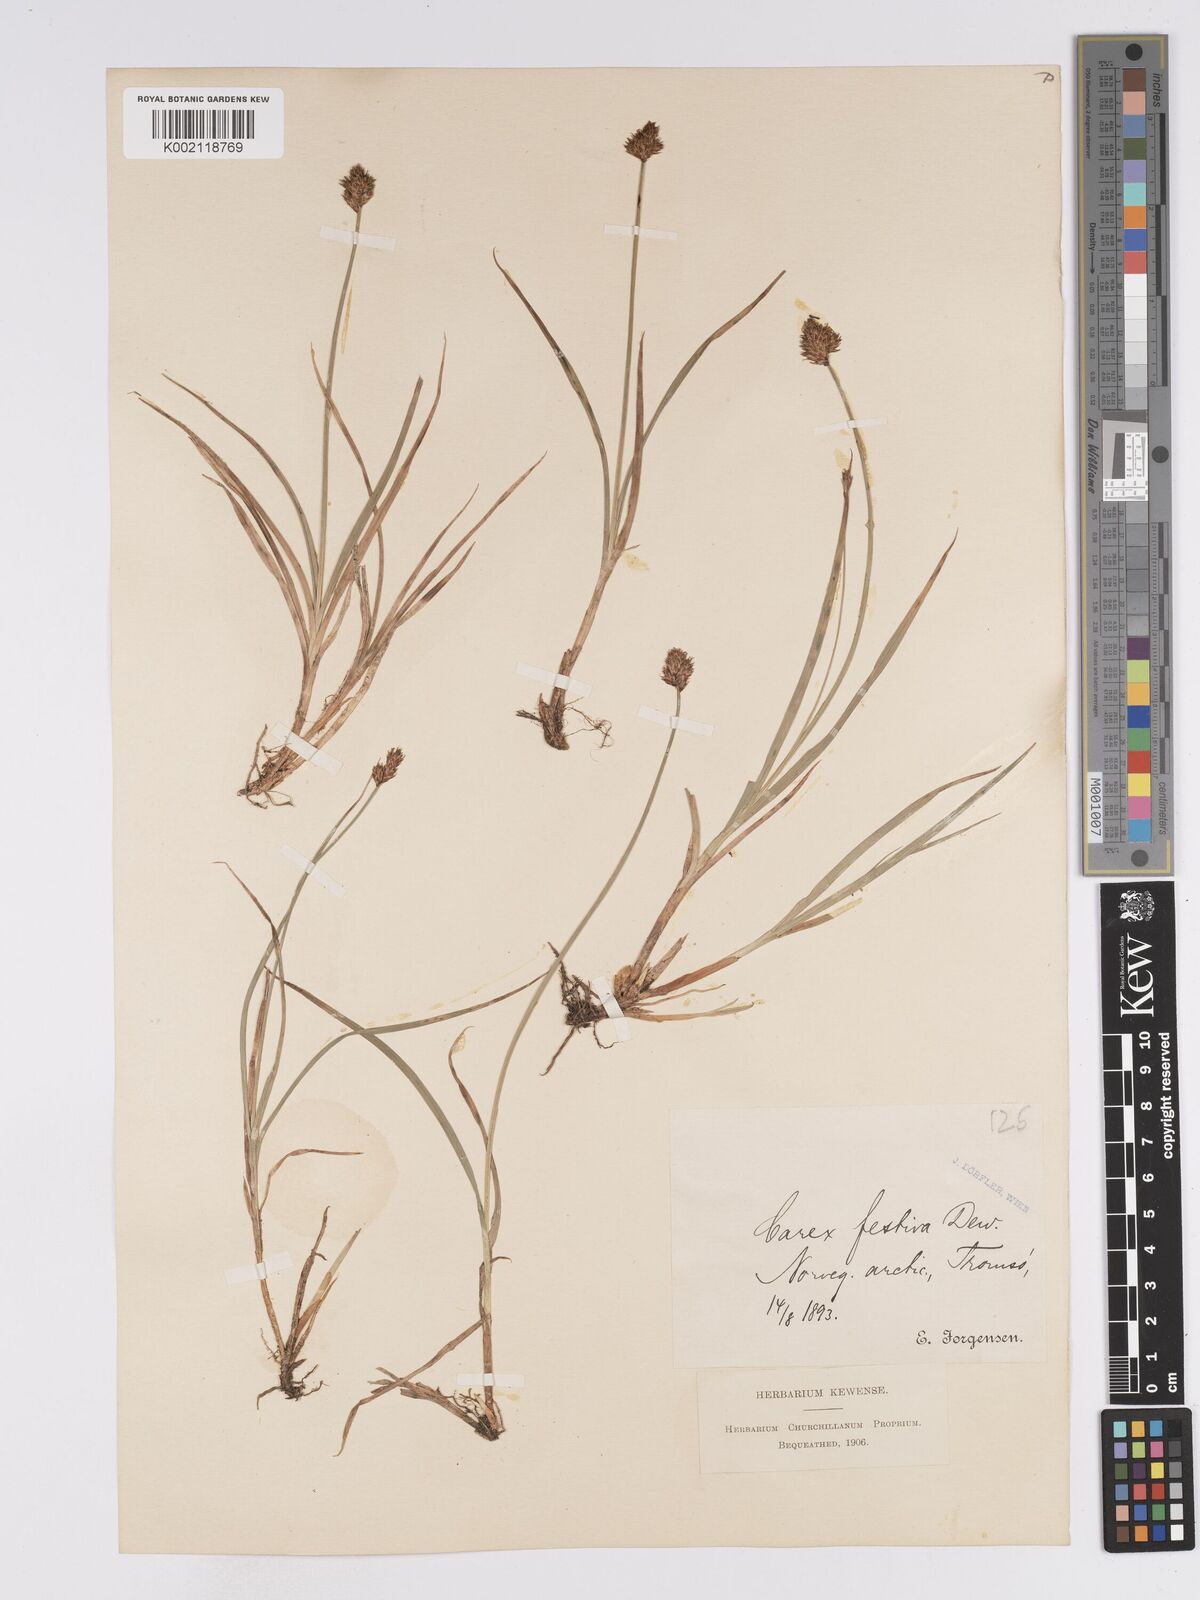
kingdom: Plantae
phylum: Tracheophyta
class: Liliopsida
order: Poales
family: Cyperaceae
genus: Carex
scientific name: Carex macloviana
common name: Falkland island sedge
